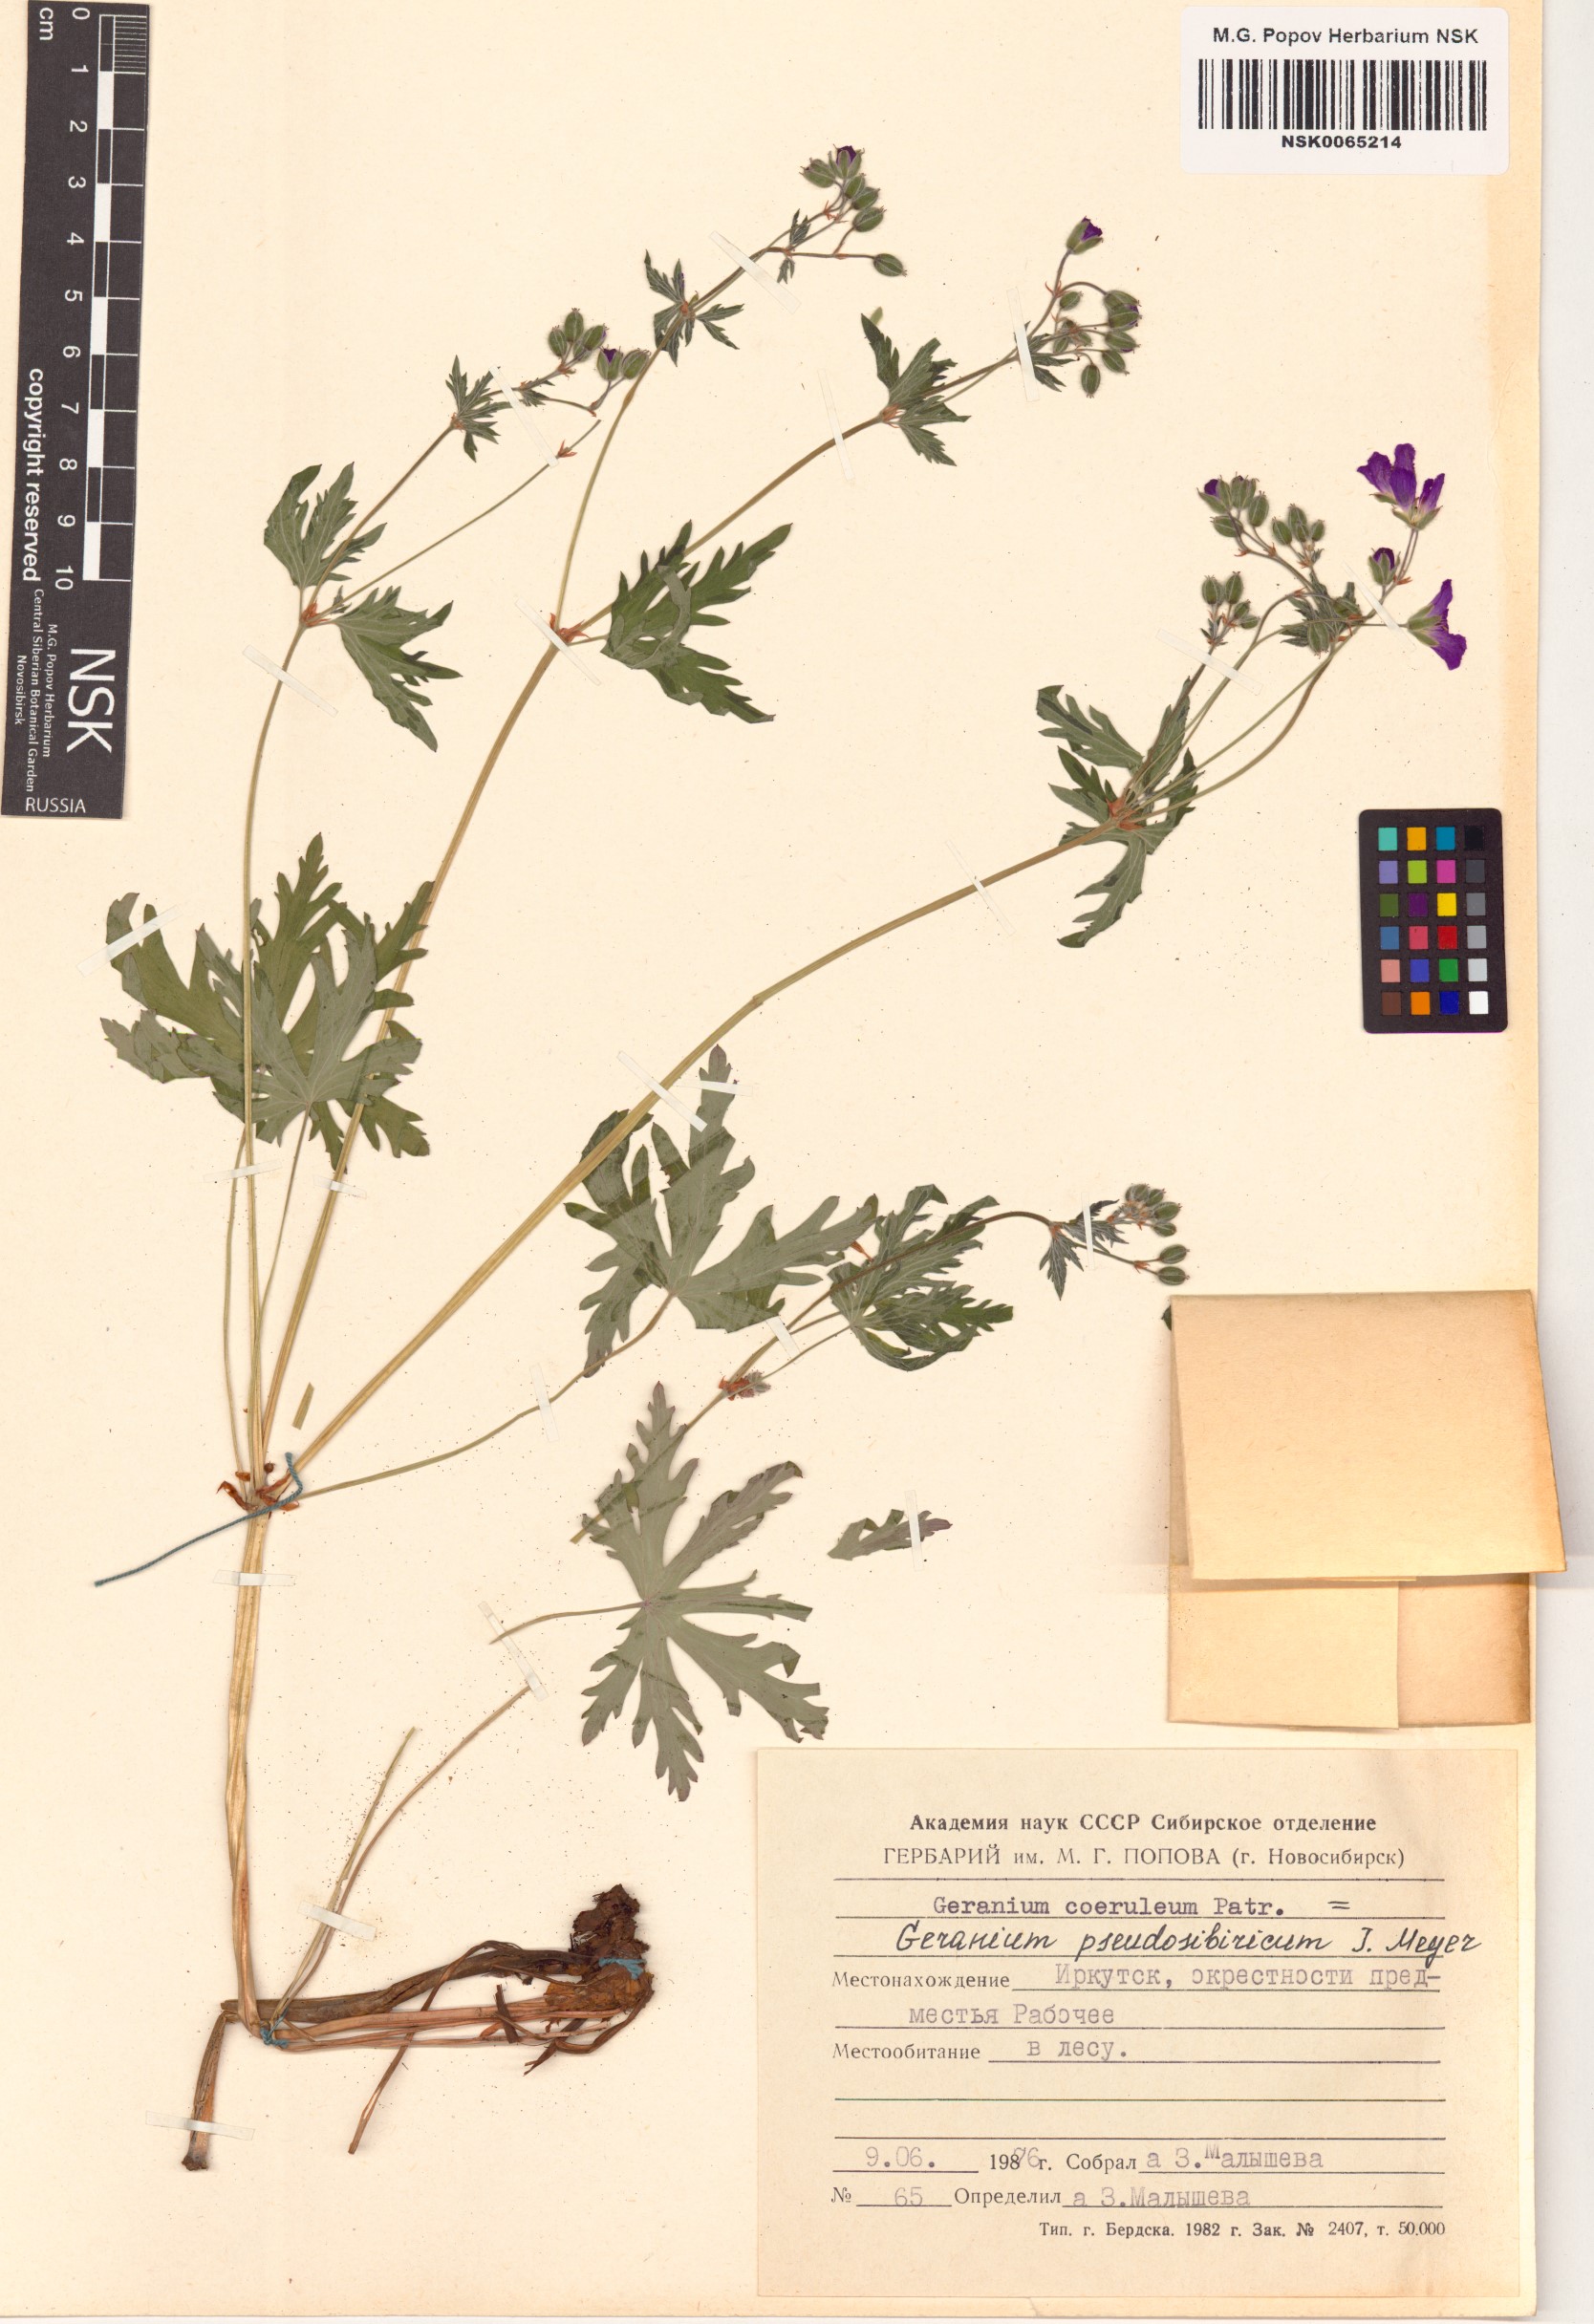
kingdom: Plantae
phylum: Tracheophyta
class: Magnoliopsida
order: Geraniales
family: Geraniaceae
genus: Geranium
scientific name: Geranium pseudosibiricum
